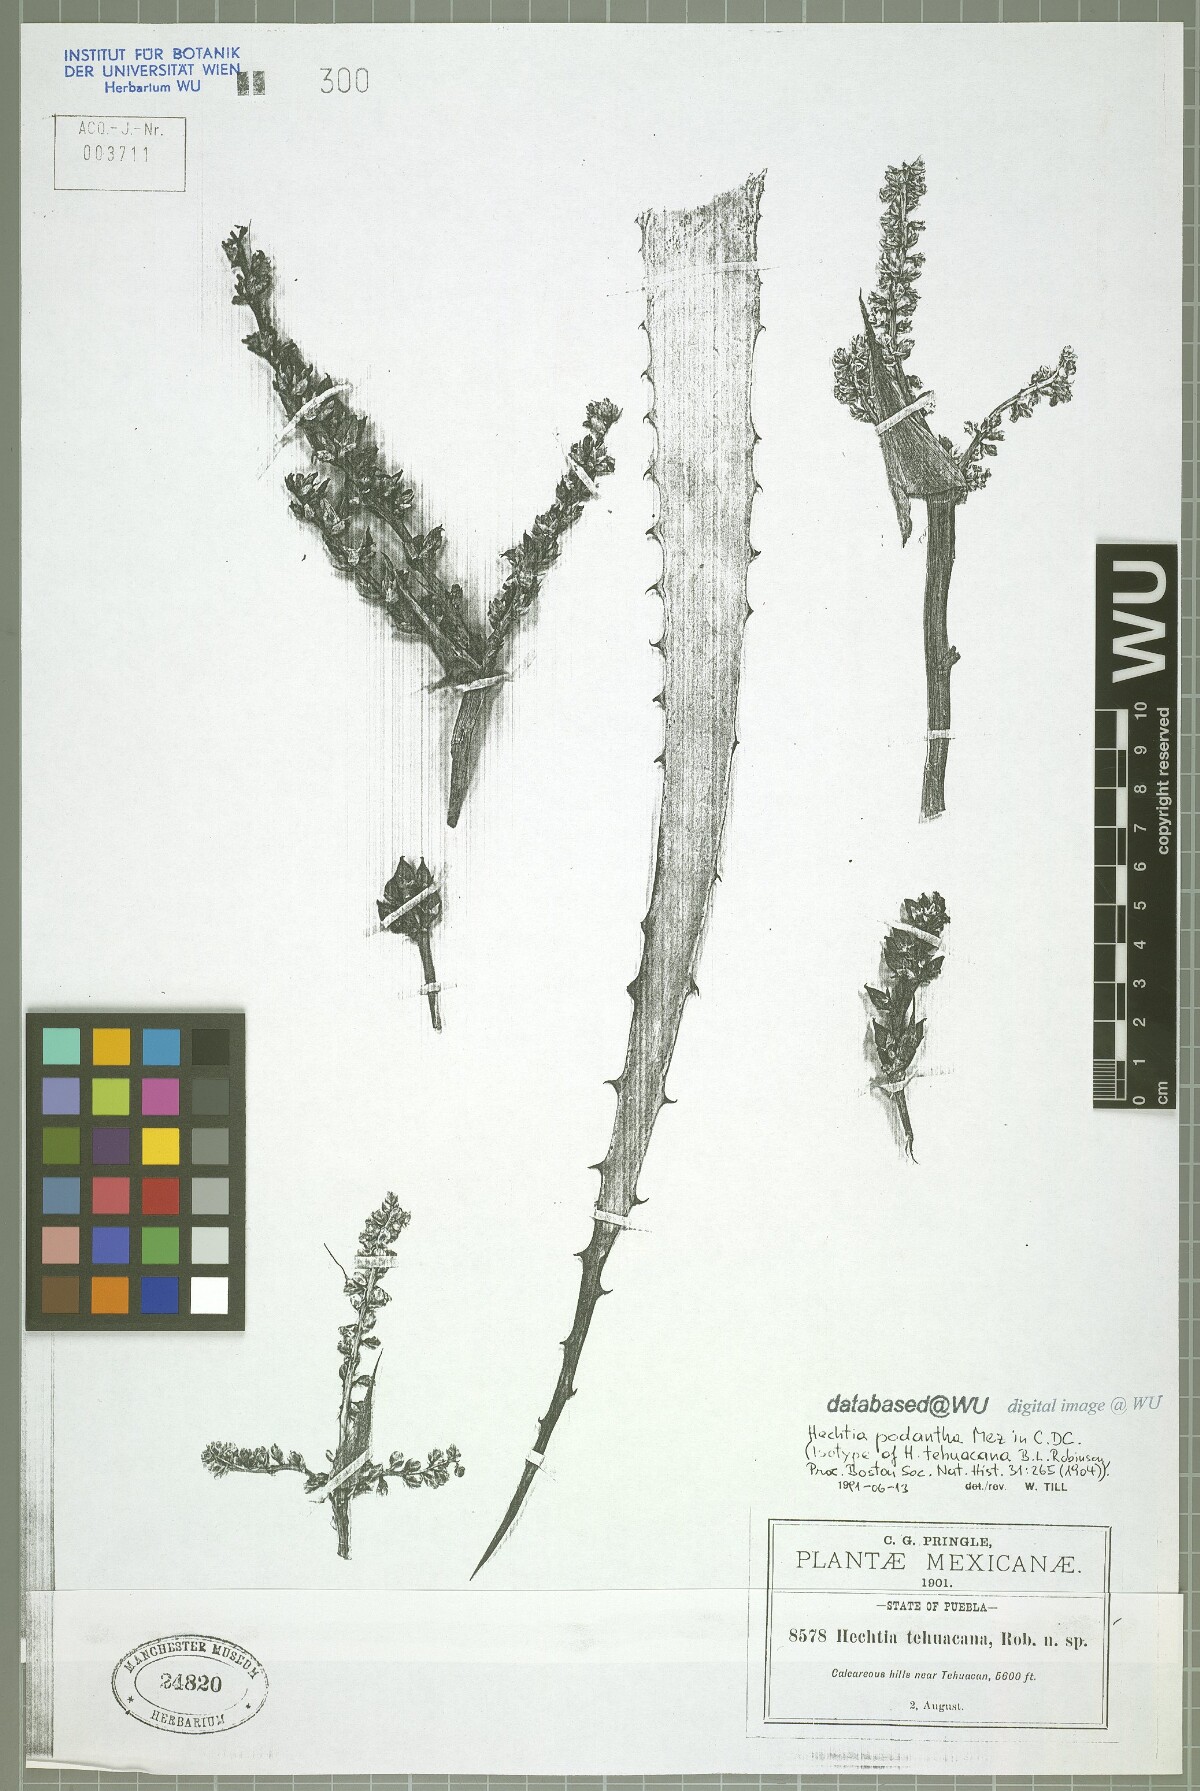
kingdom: Plantae
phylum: Tracheophyta
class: Liliopsida
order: Poales
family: Bromeliaceae
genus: Hechtia
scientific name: Hechtia liebmannii
